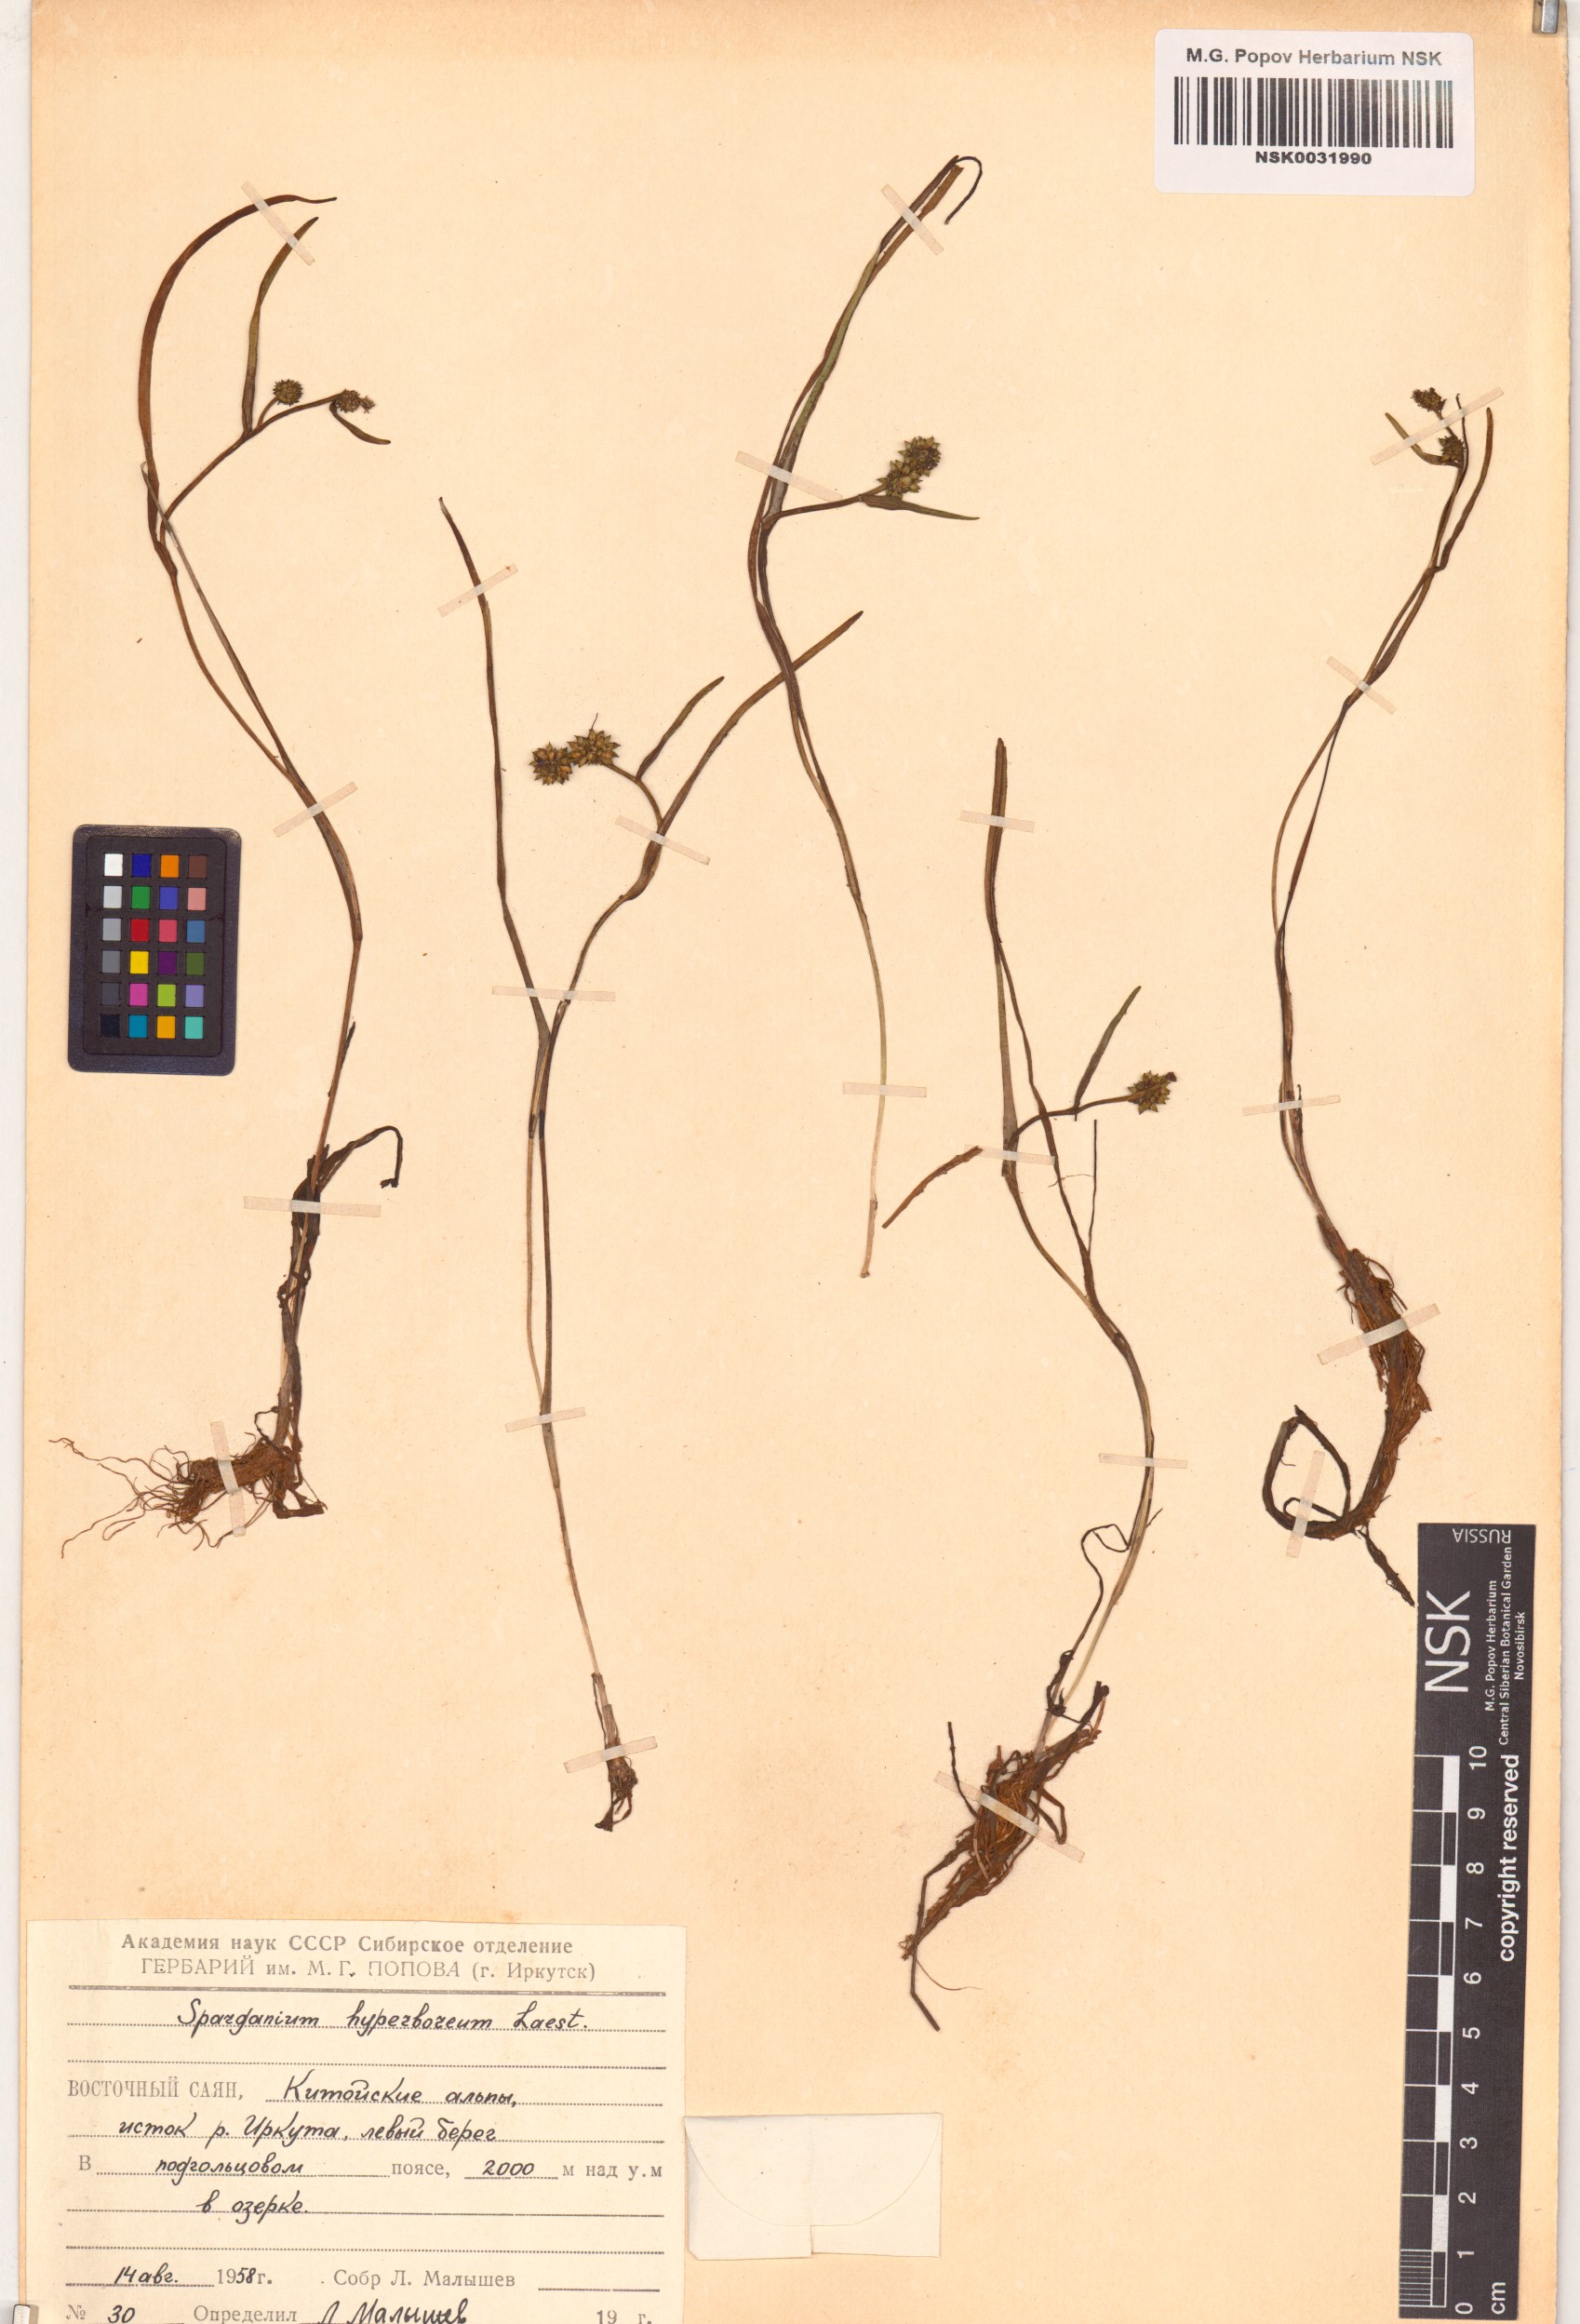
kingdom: Plantae
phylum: Tracheophyta
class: Liliopsida
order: Poales
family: Typhaceae
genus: Sparganium
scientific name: Sparganium hyperboreum
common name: Arctic burreed
